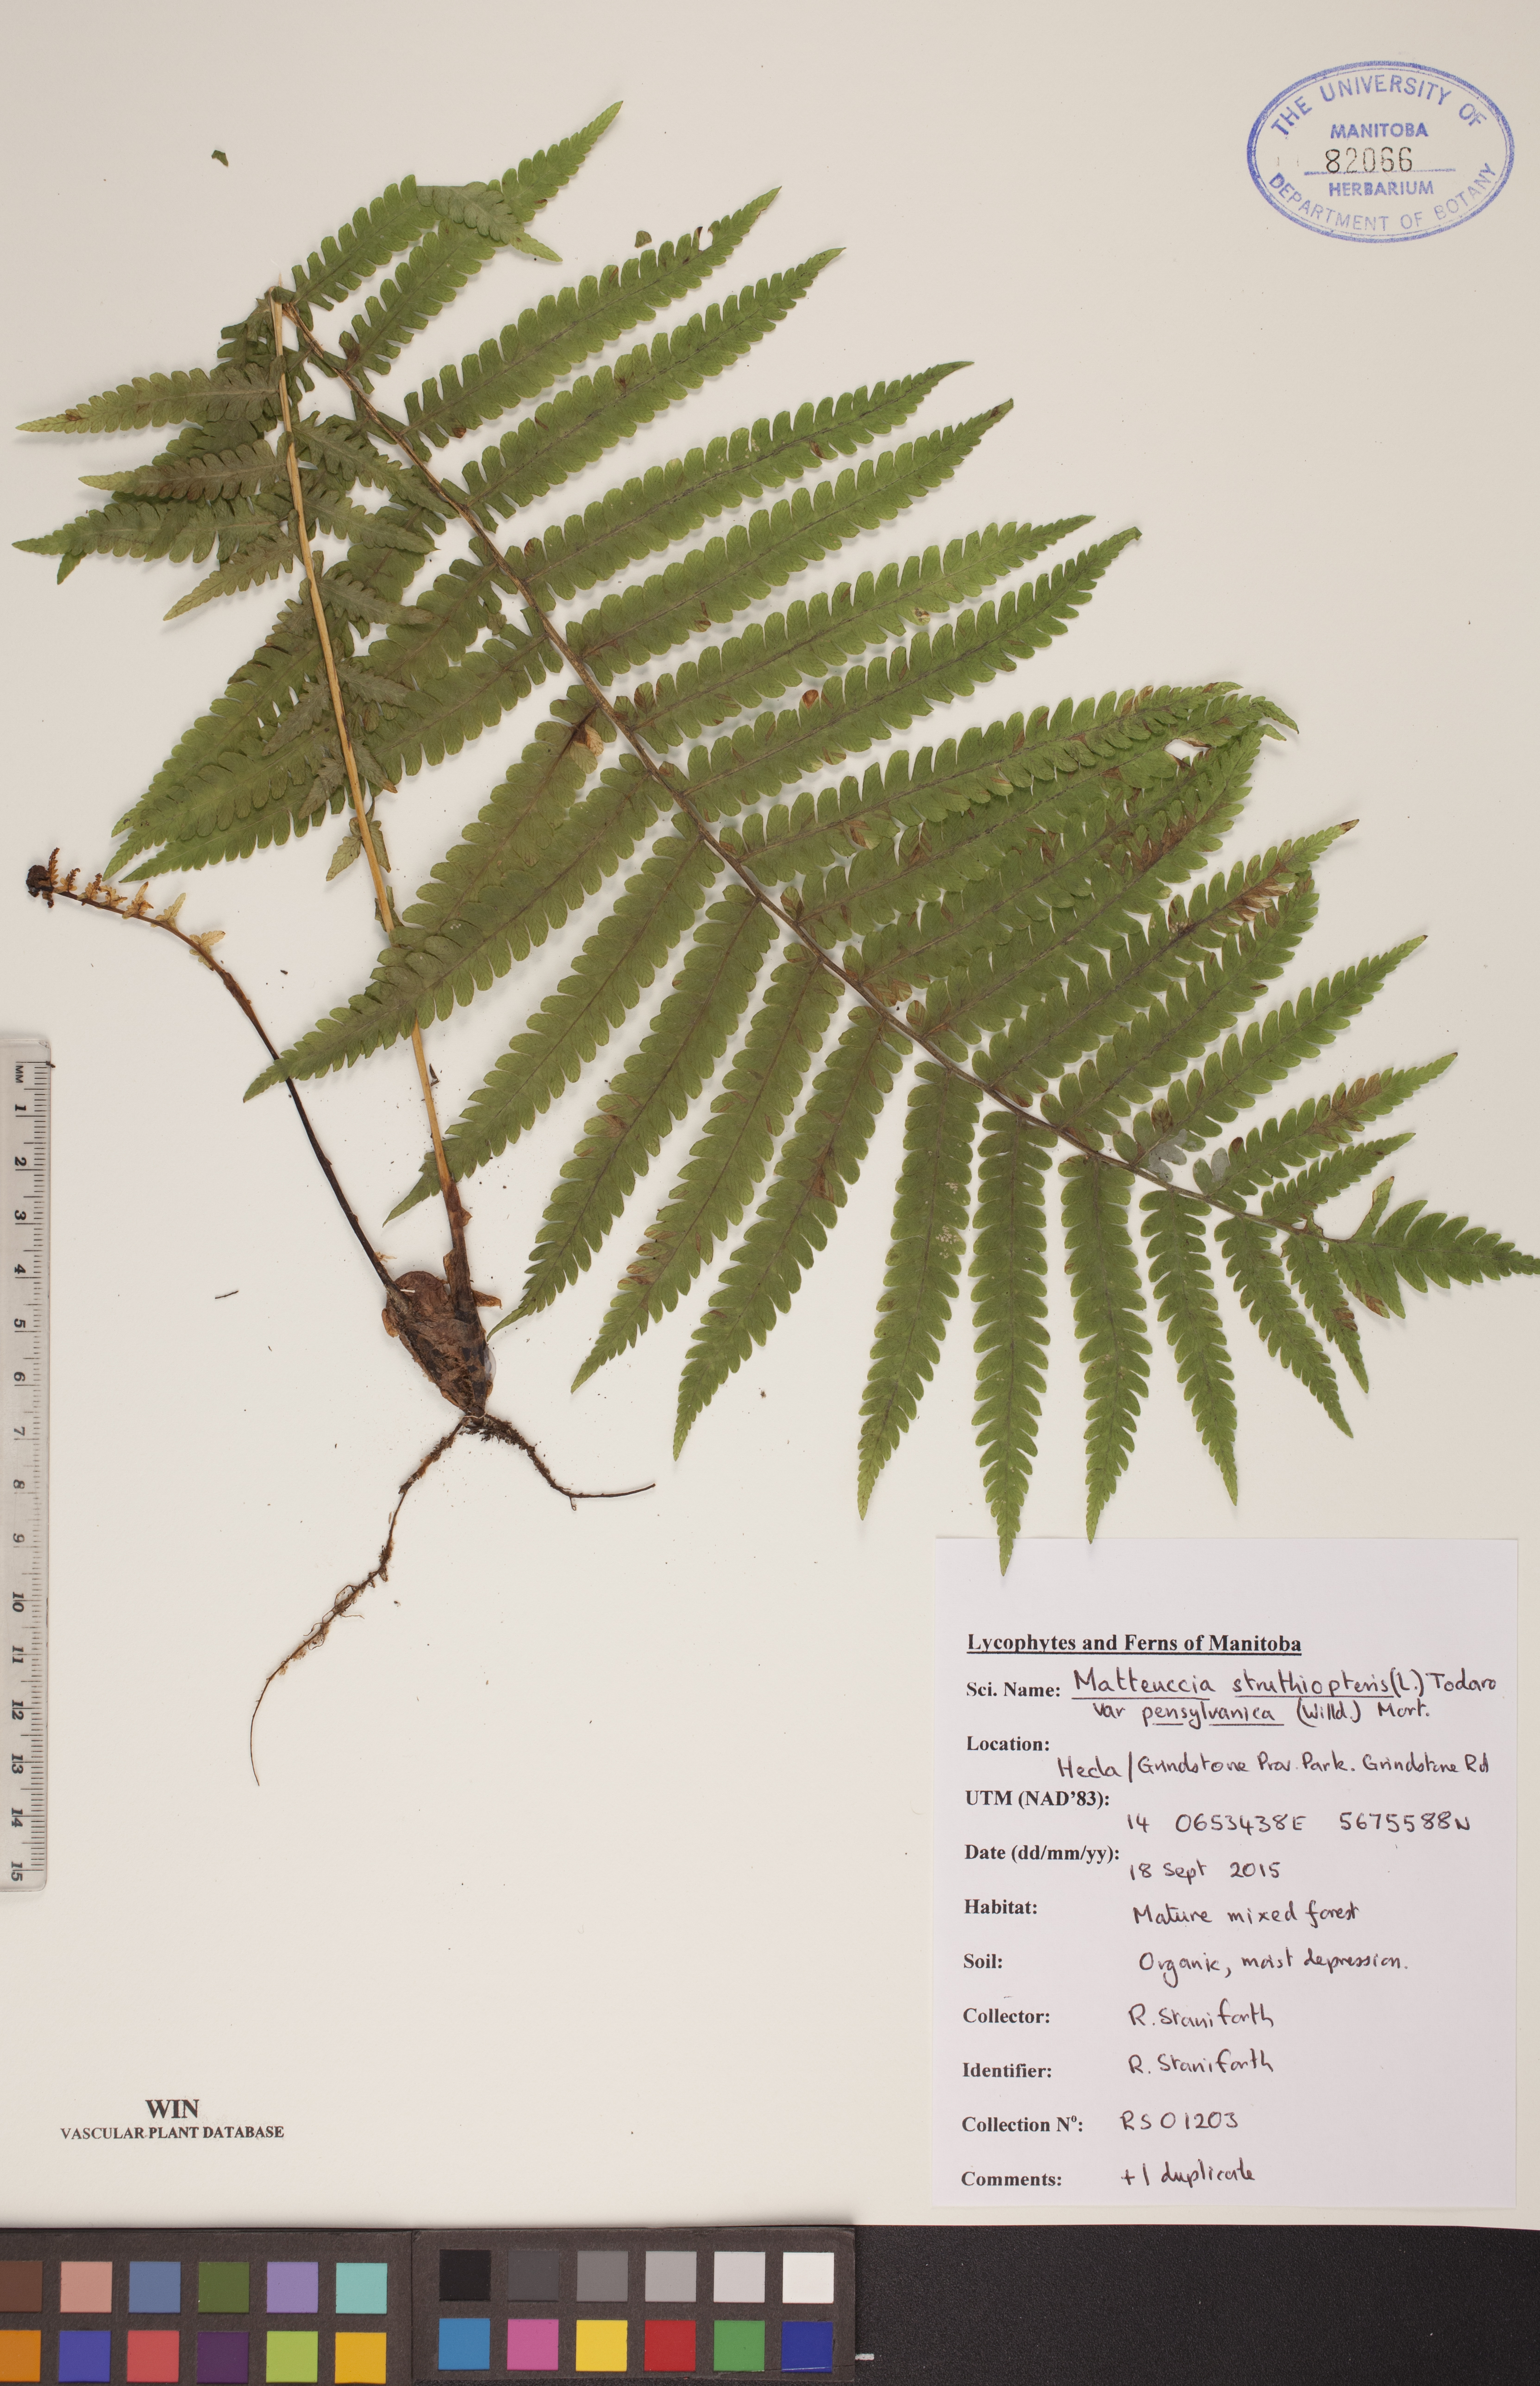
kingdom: Plantae
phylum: Tracheophyta
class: Polypodiopsida
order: Polypodiales
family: Onocleaceae
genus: Matteuccia
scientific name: Matteuccia pensylvanica
